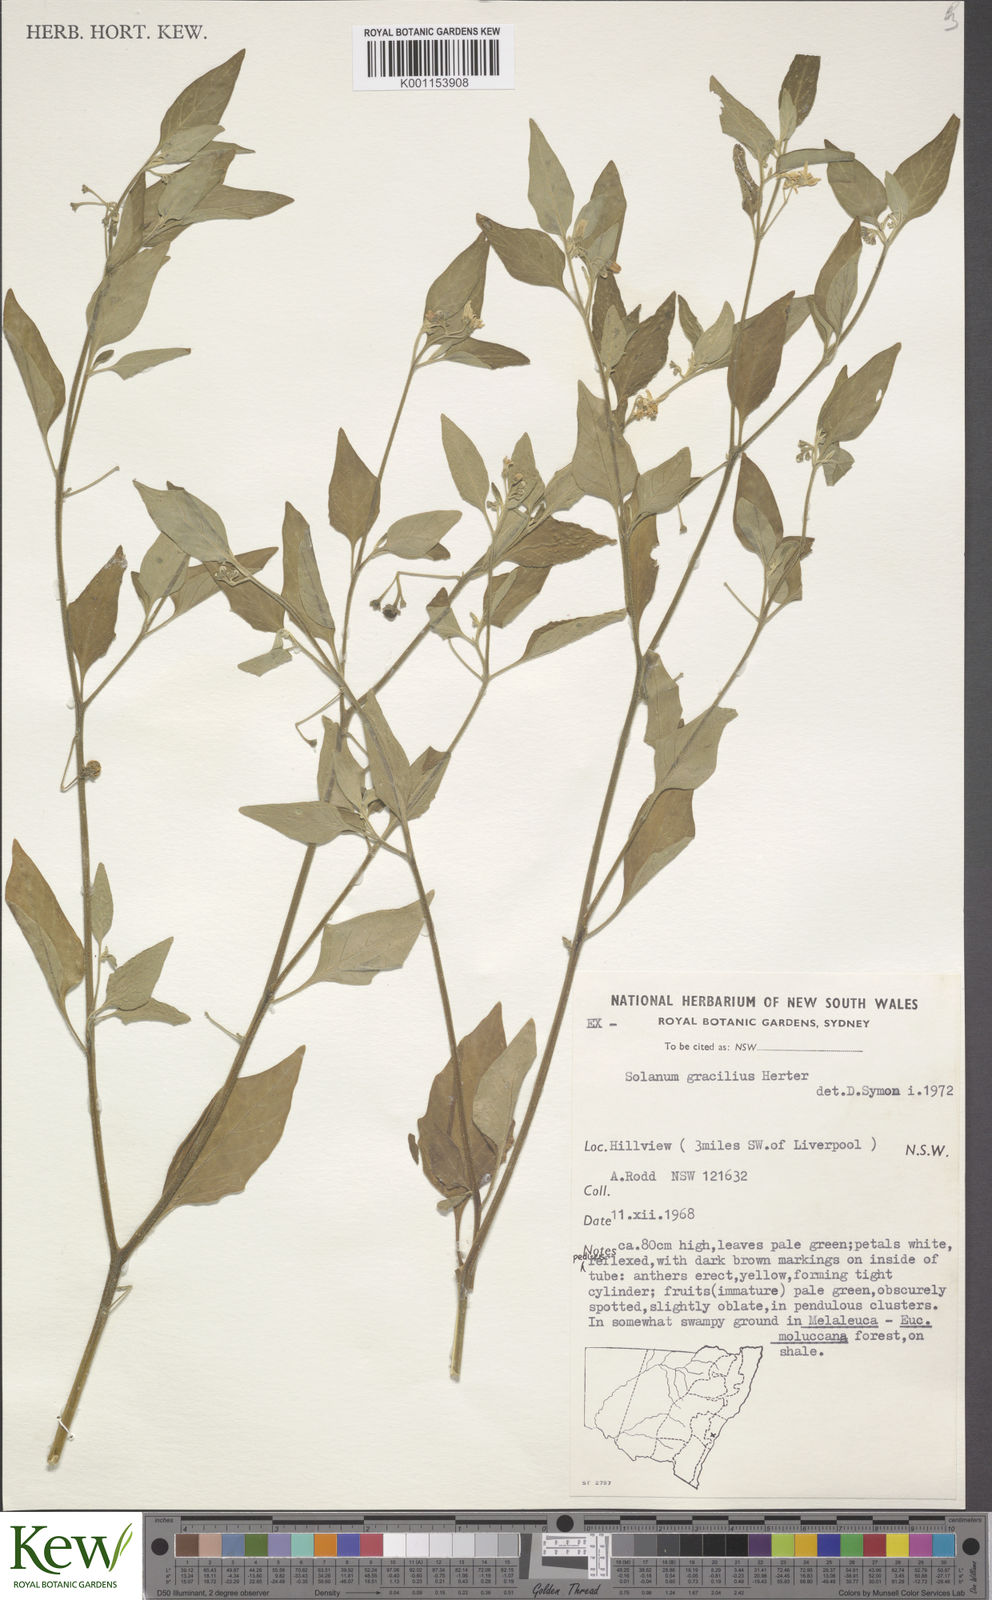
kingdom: Plantae
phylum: Tracheophyta
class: Magnoliopsida
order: Solanales
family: Solanaceae
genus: Solanum
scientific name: Solanum chenopodioides
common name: Tall nightshade
